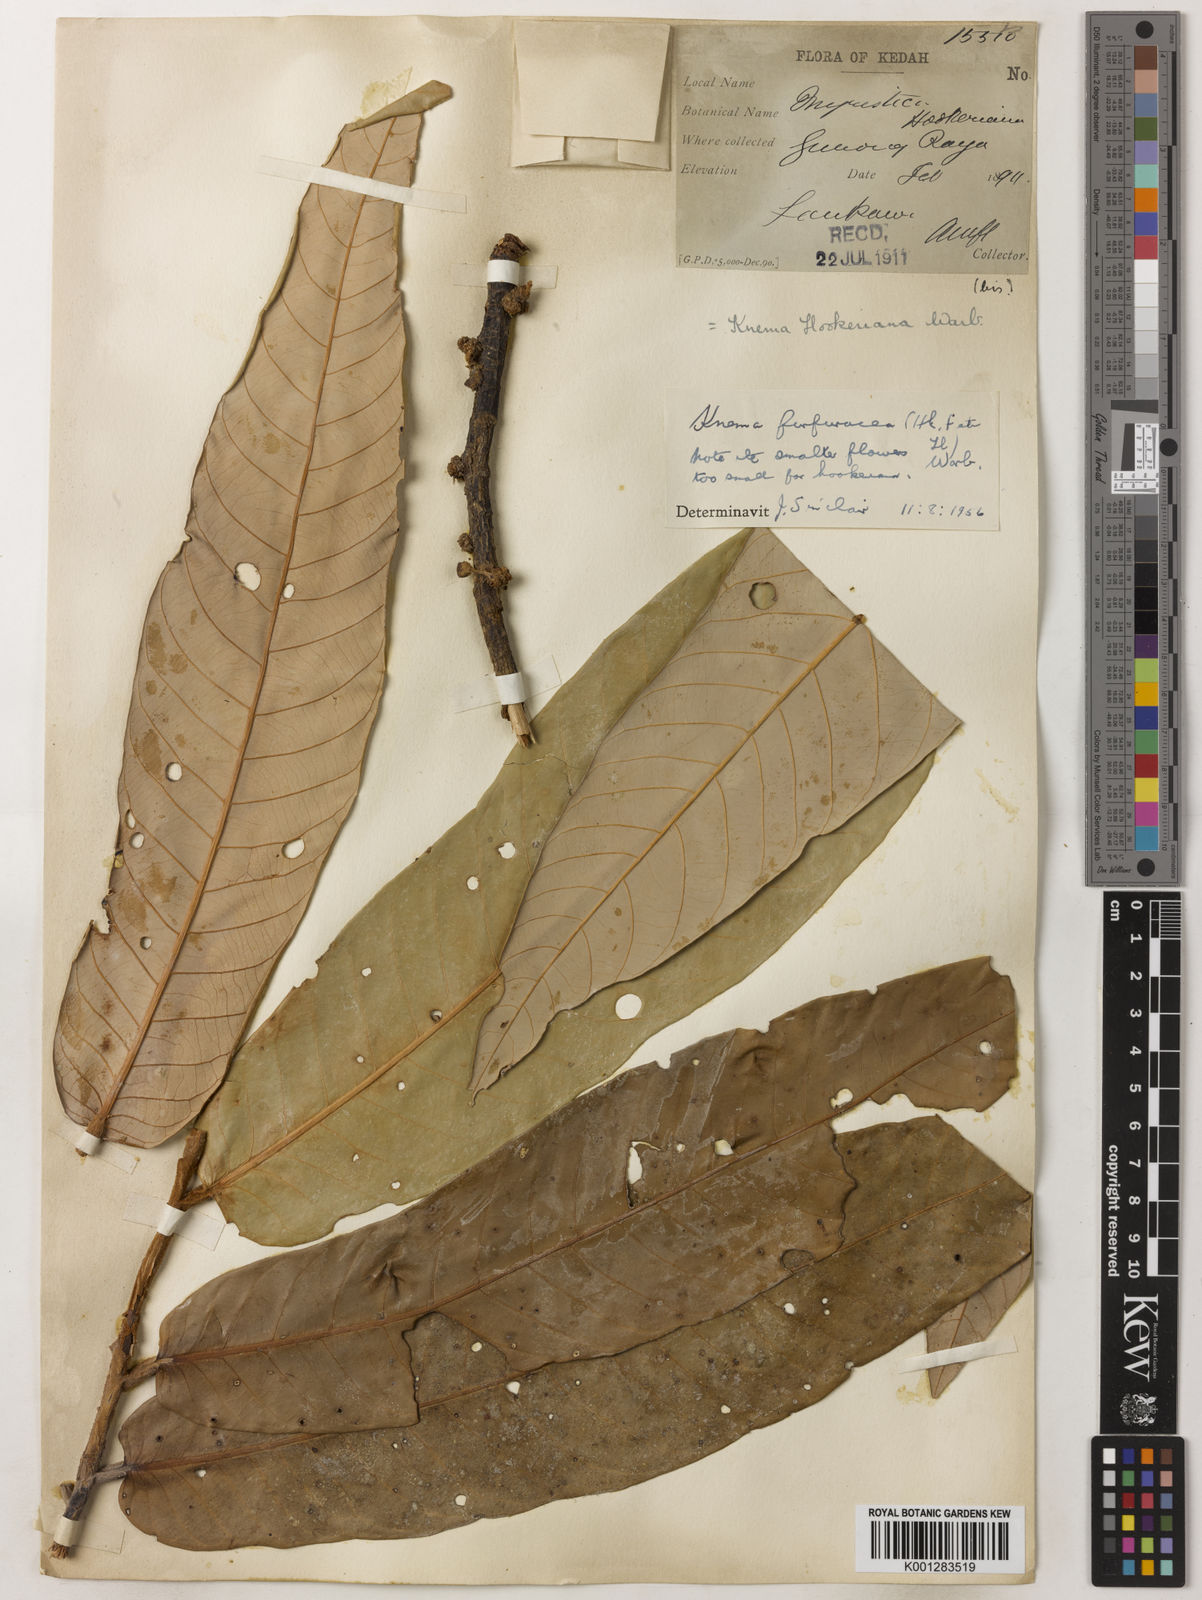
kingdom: Plantae
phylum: Tracheophyta
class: Magnoliopsida
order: Magnoliales
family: Myristicaceae
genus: Knema
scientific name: Knema furfuracea
